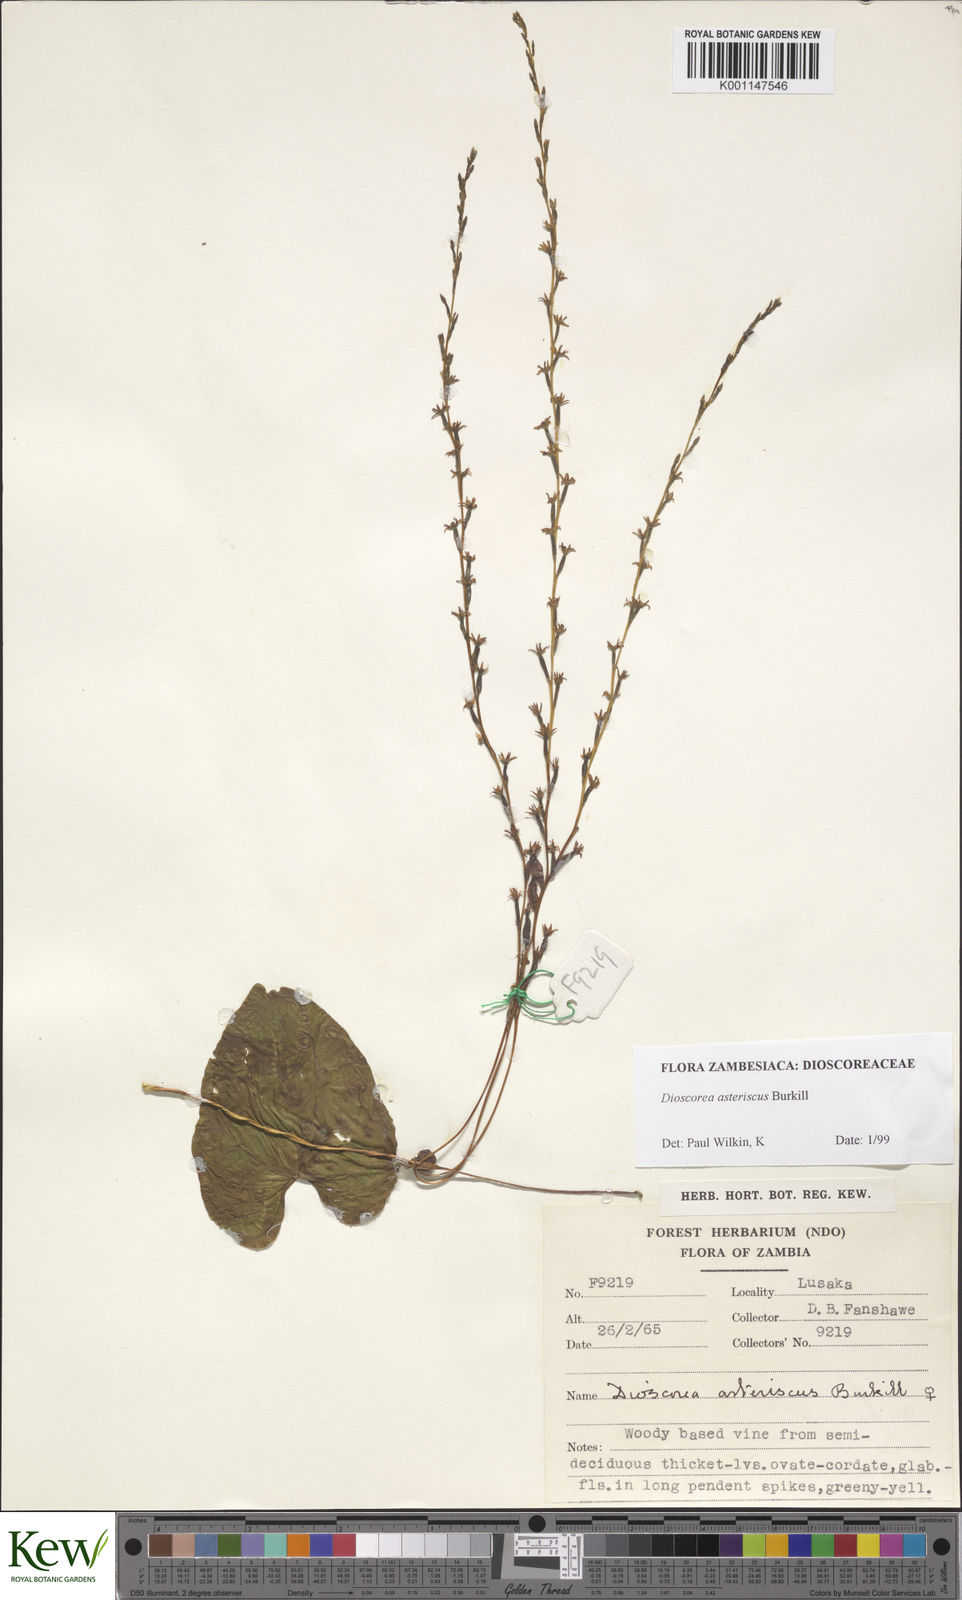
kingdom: Plantae
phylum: Tracheophyta
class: Liliopsida
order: Dioscoreales
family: Dioscoreaceae
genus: Dioscorea
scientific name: Dioscorea asteriscus
